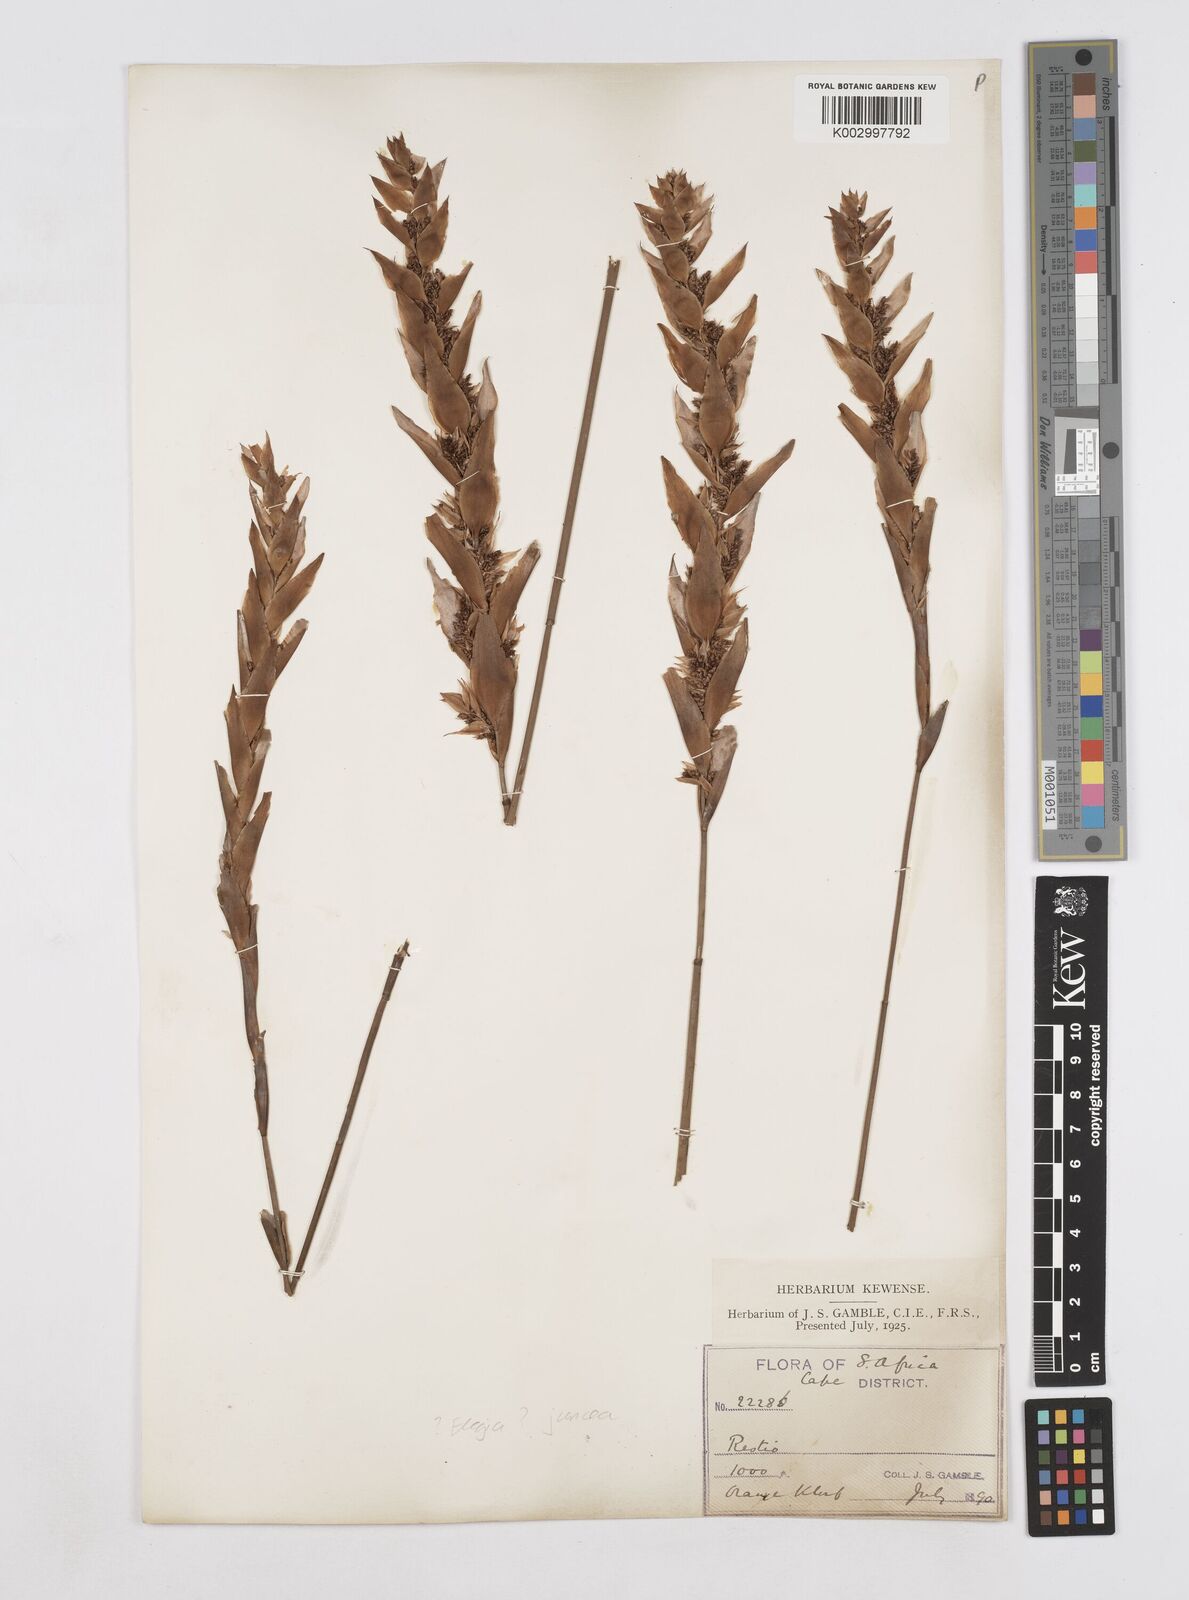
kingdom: Plantae
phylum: Tracheophyta
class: Liliopsida
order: Poales
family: Restionaceae
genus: Elegia
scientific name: Elegia juncea
